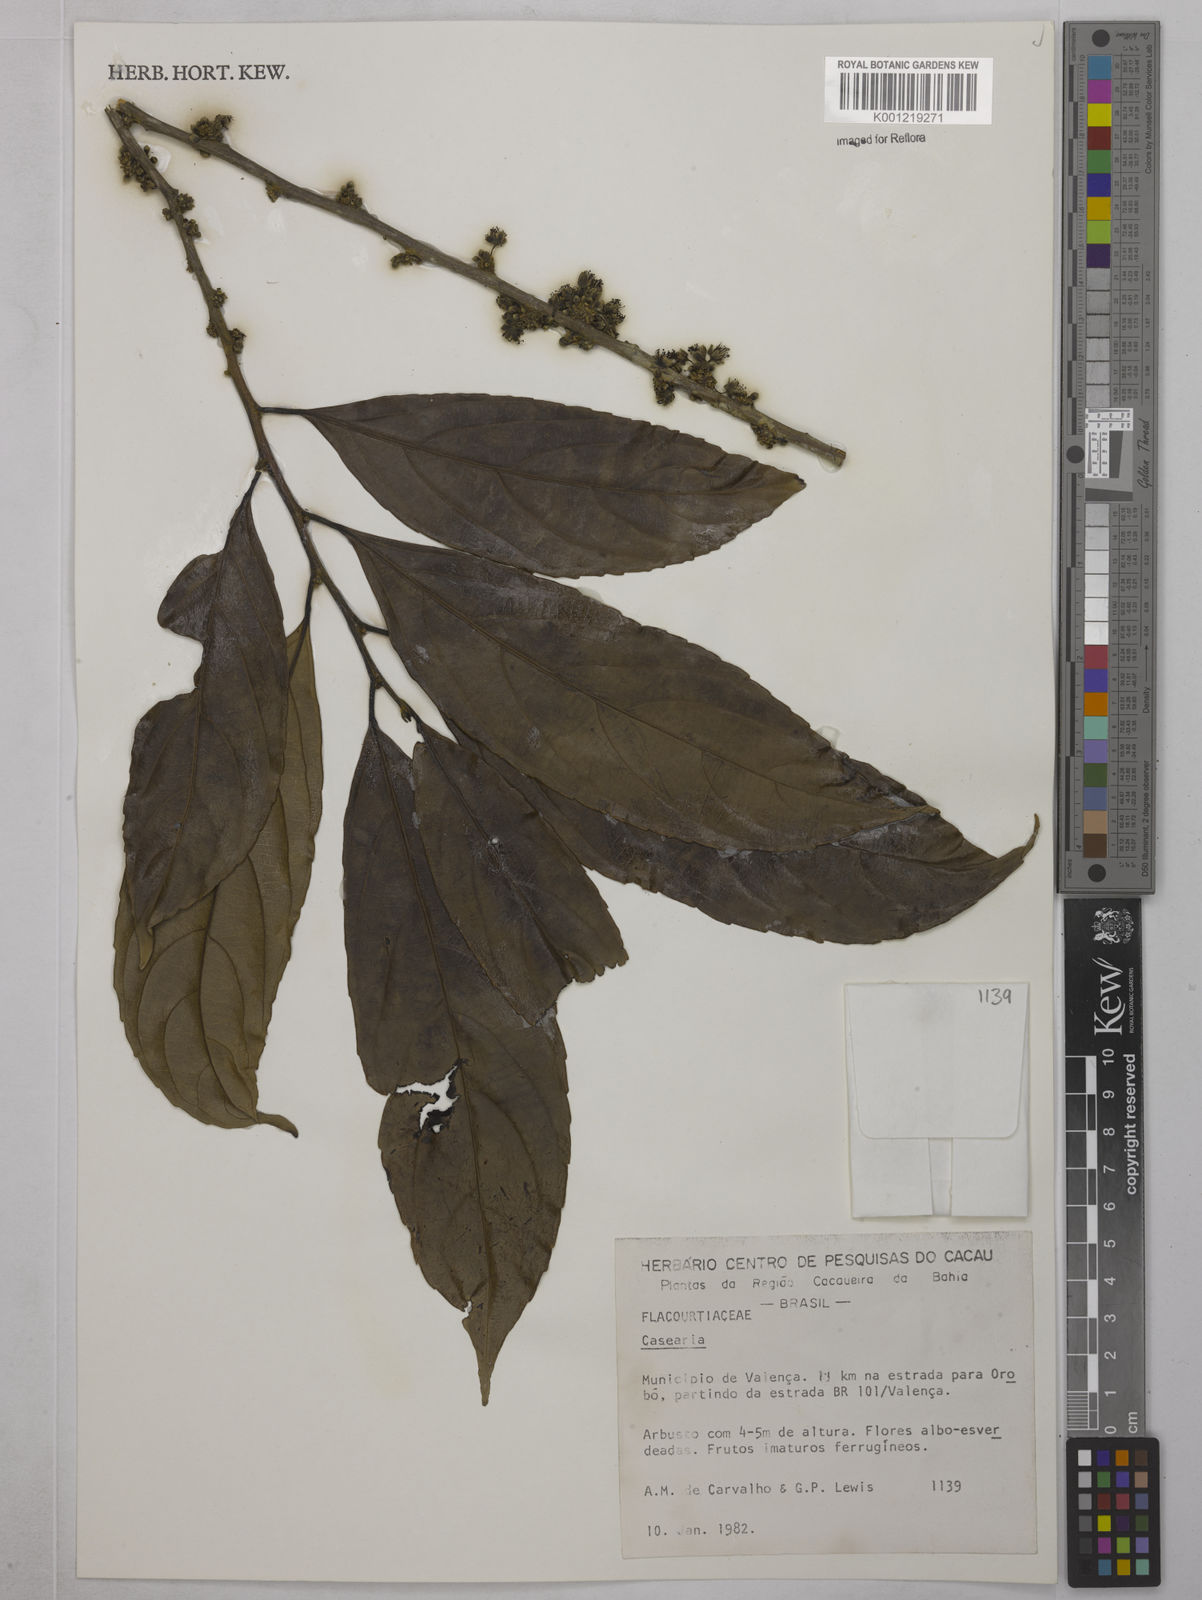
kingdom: Plantae
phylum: Tracheophyta
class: Magnoliopsida
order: Malpighiales
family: Salicaceae
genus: Casearia
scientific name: Casearia
